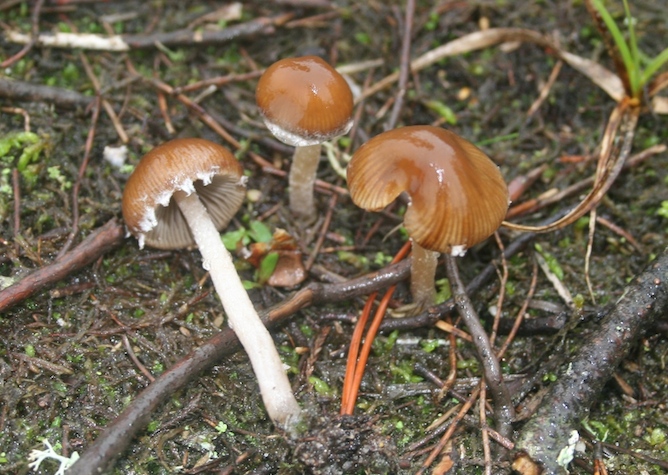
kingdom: Fungi
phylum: Basidiomycota
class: Agaricomycetes
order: Agaricales
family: Psathyrellaceae
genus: Psathyrella
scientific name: Psathyrella hololanigera
